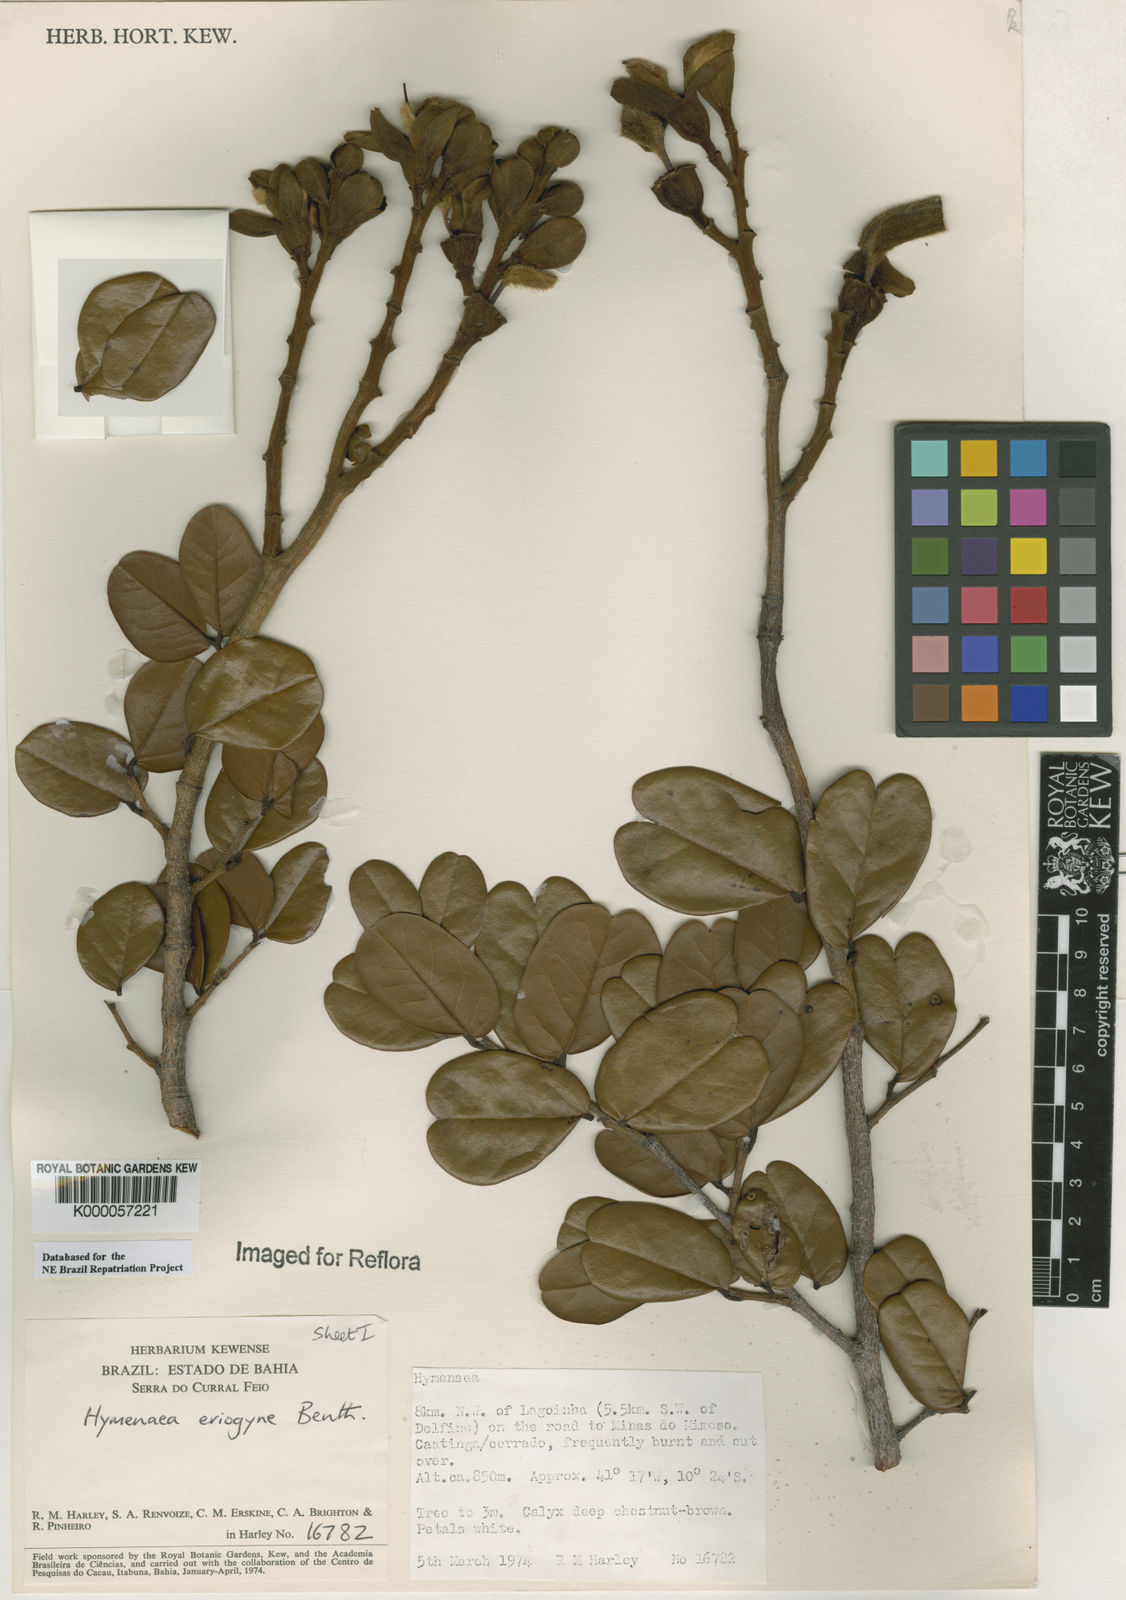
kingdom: Plantae
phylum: Tracheophyta
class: Magnoliopsida
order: Fabales
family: Fabaceae
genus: Hymenaea
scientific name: Hymenaea eriogyne
